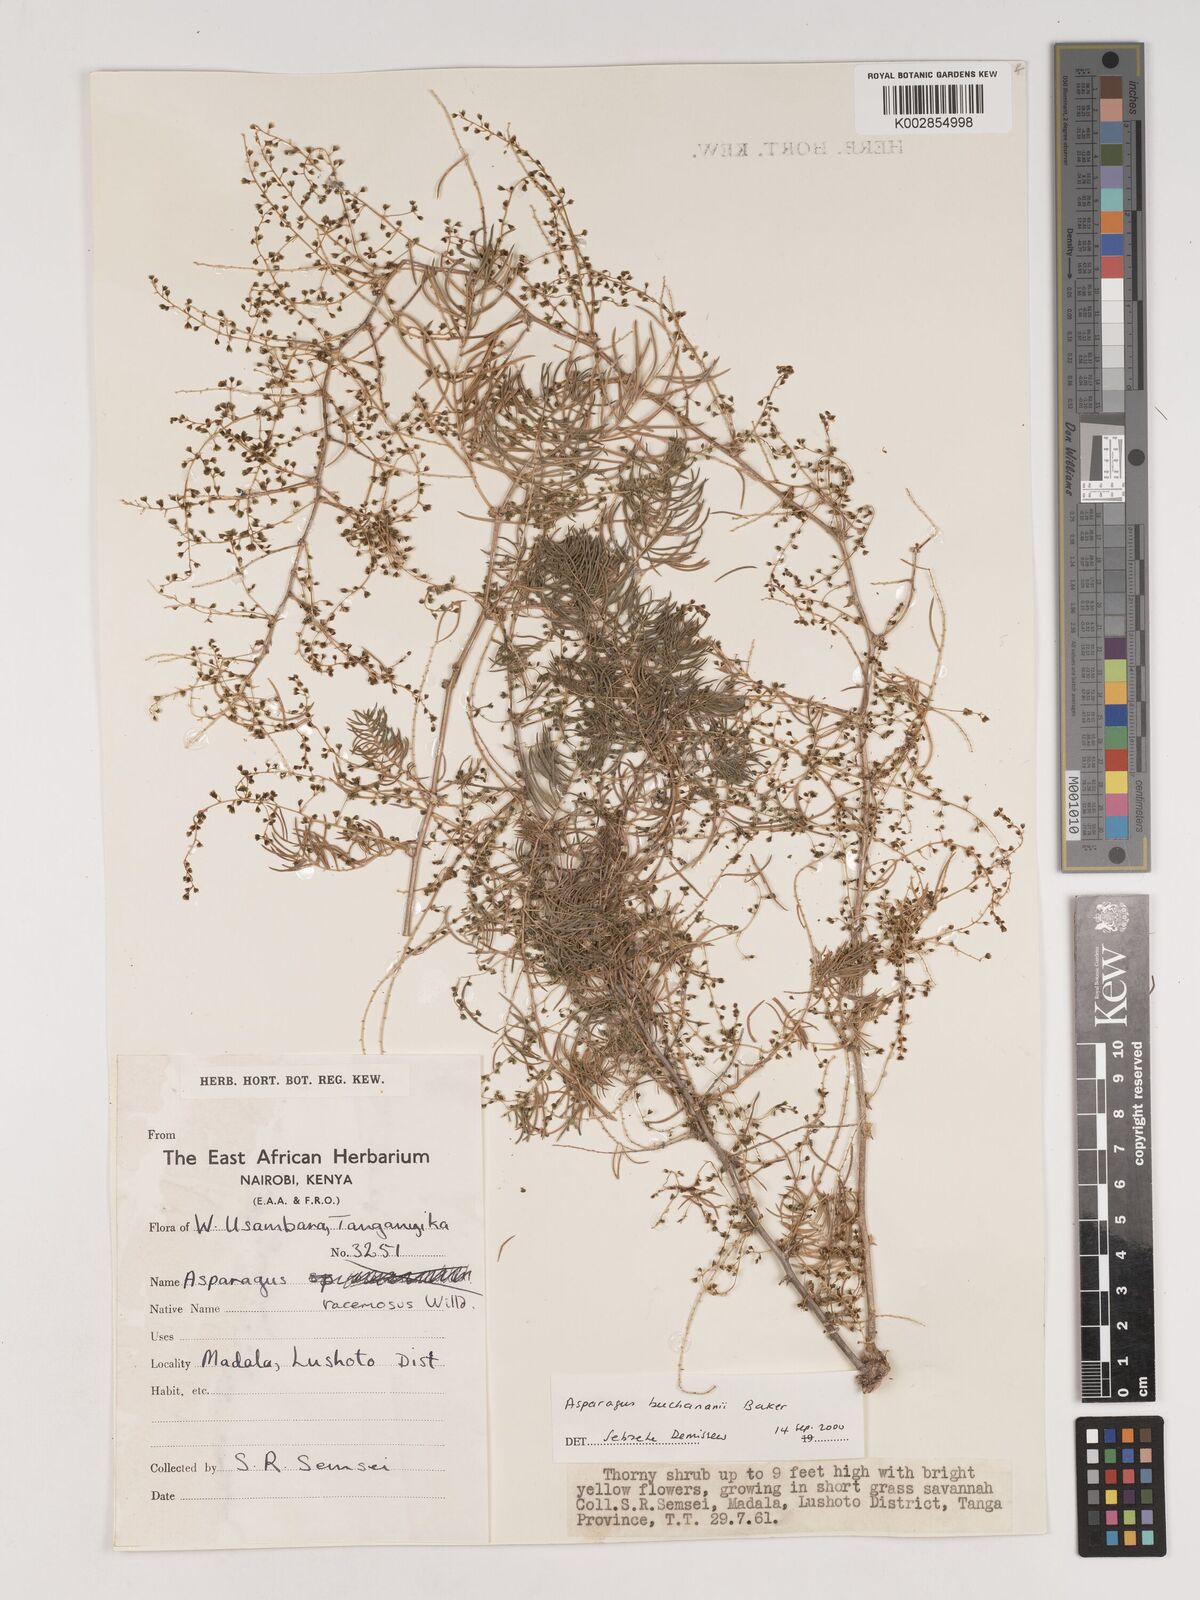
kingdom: Plantae
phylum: Tracheophyta
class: Liliopsida
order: Asparagales
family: Asparagaceae
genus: Asparagus
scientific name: Asparagus buchananii
